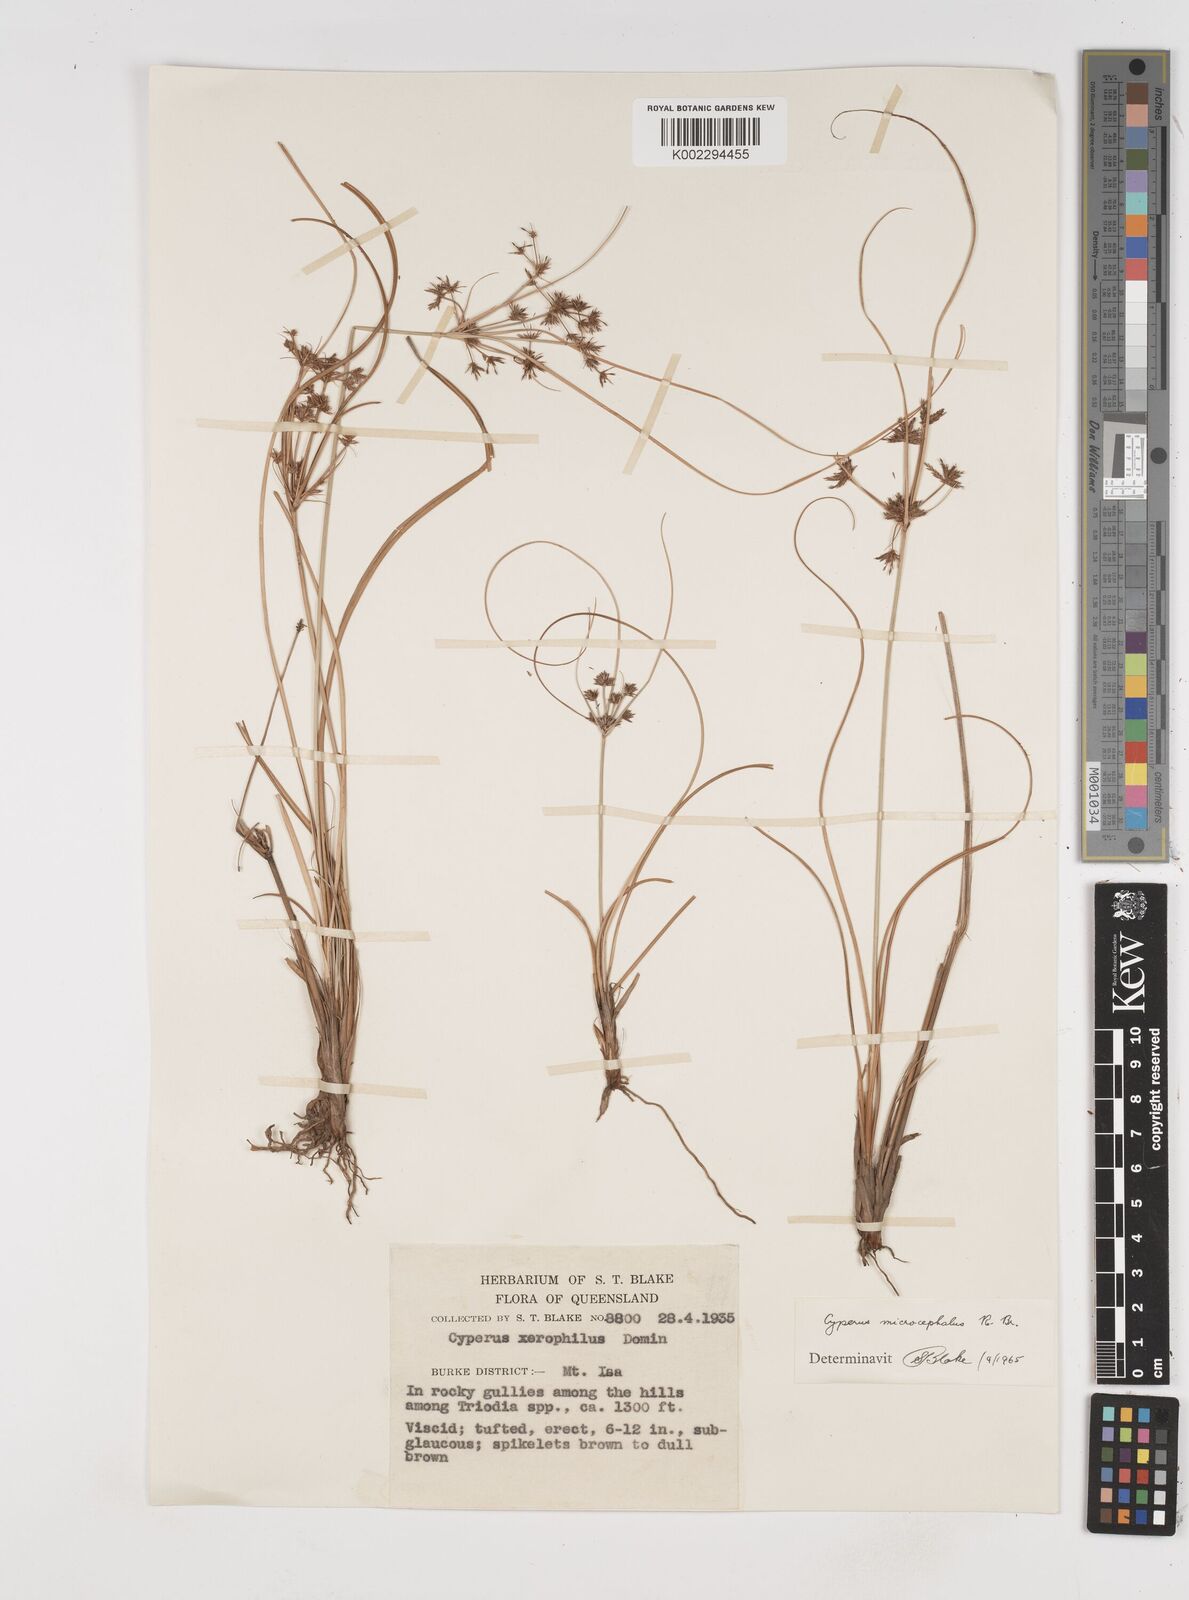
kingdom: Plantae
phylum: Tracheophyta
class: Liliopsida
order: Poales
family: Cyperaceae
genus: Cyperus
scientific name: Cyperus microcephalus
